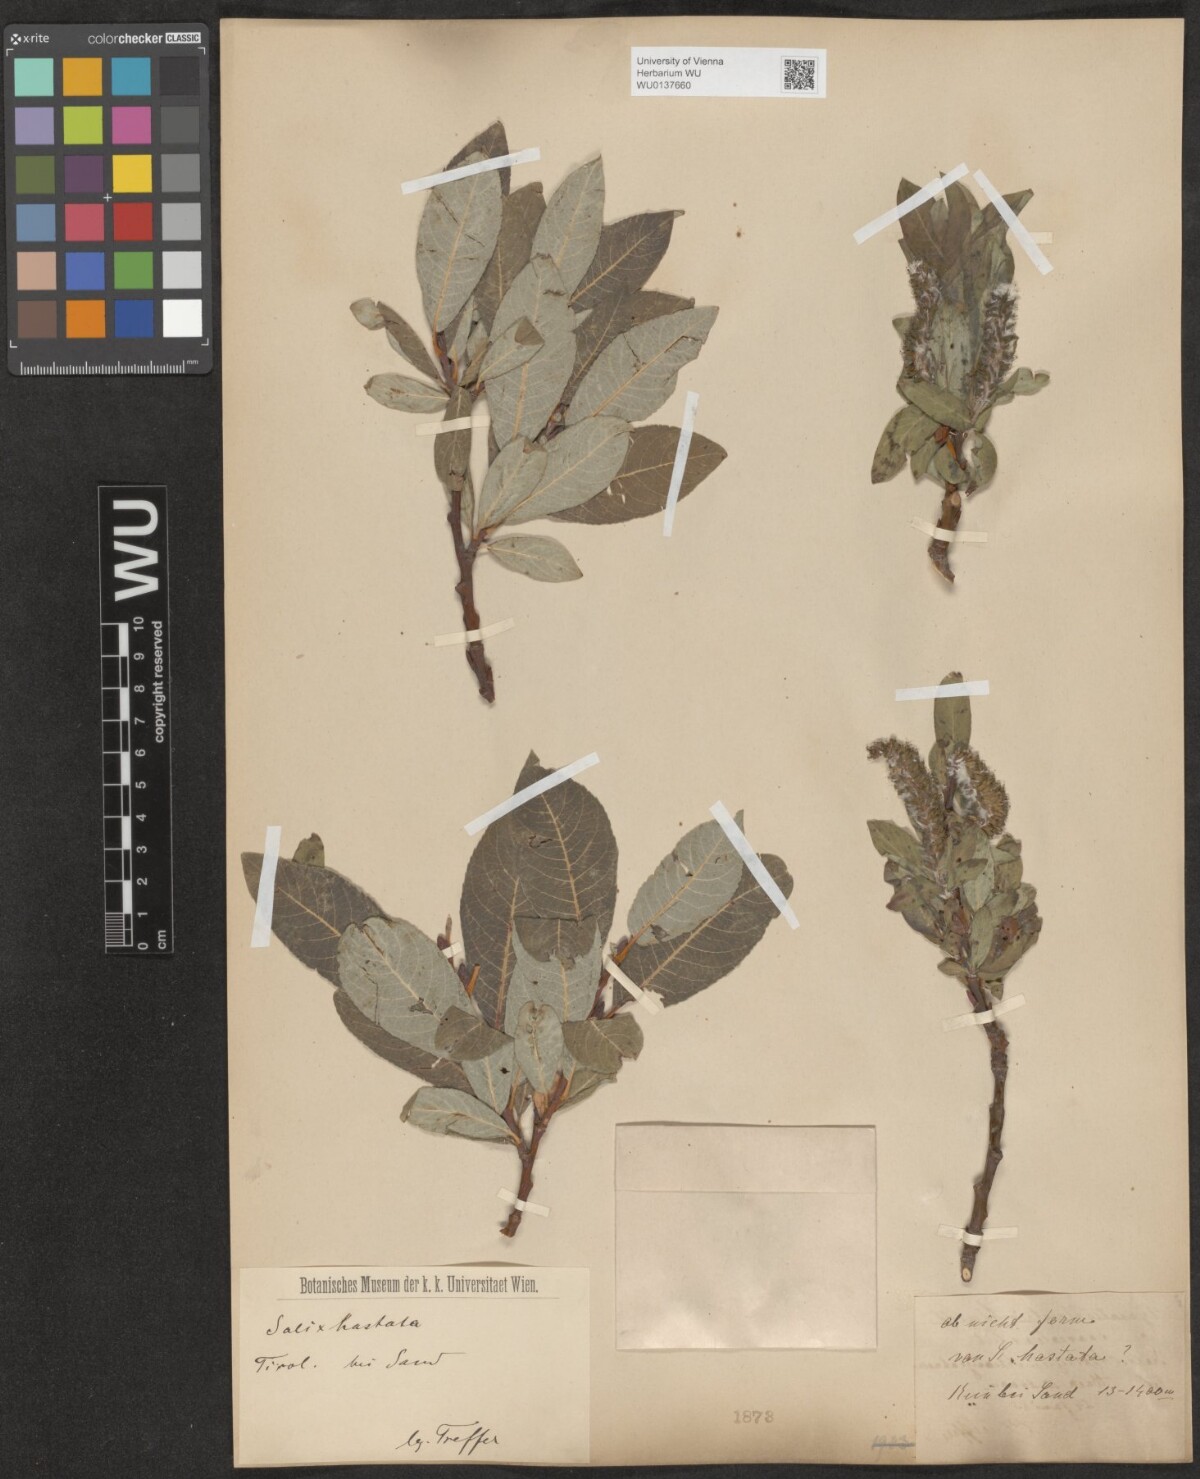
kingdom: Plantae
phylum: Tracheophyta
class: Magnoliopsida
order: Malpighiales
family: Salicaceae
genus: Salix
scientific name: Salix hastata
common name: Halberd willow
